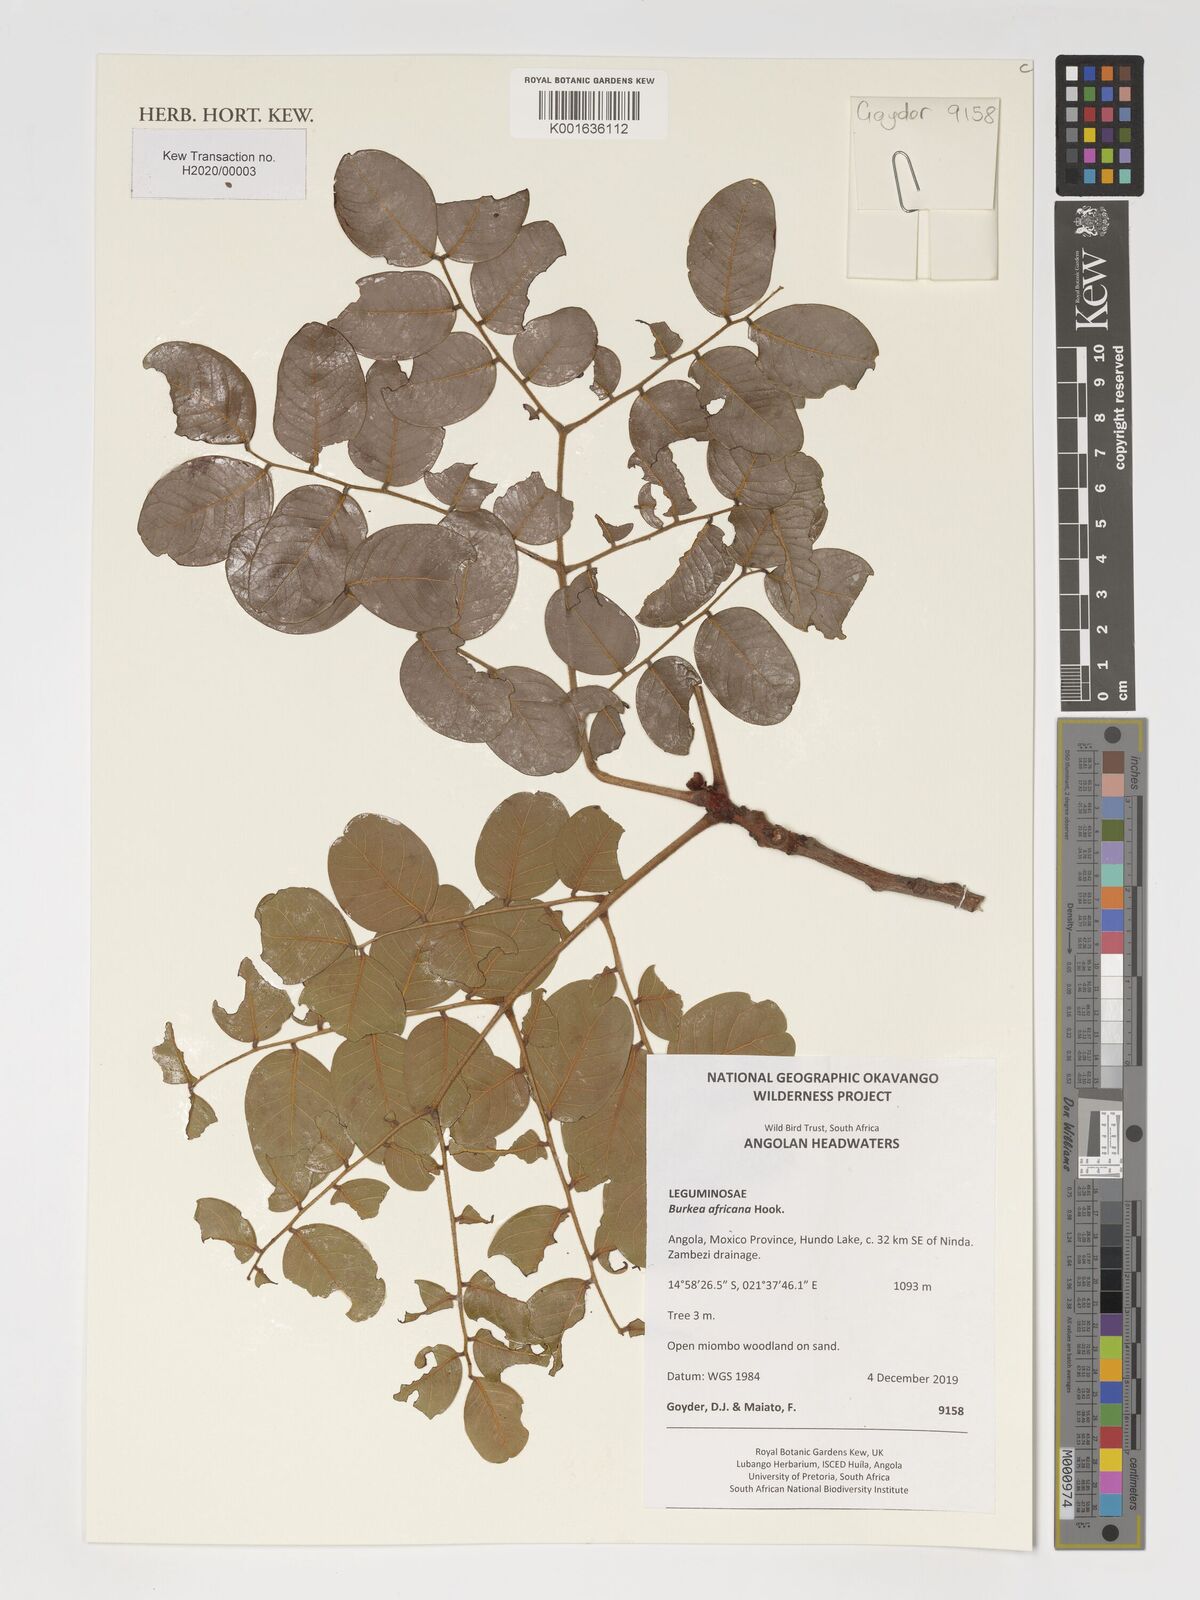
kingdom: Plantae
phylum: Tracheophyta
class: Magnoliopsida
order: Fabales
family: Fabaceae
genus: Burkea
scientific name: Burkea africana
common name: Mkalati tree
